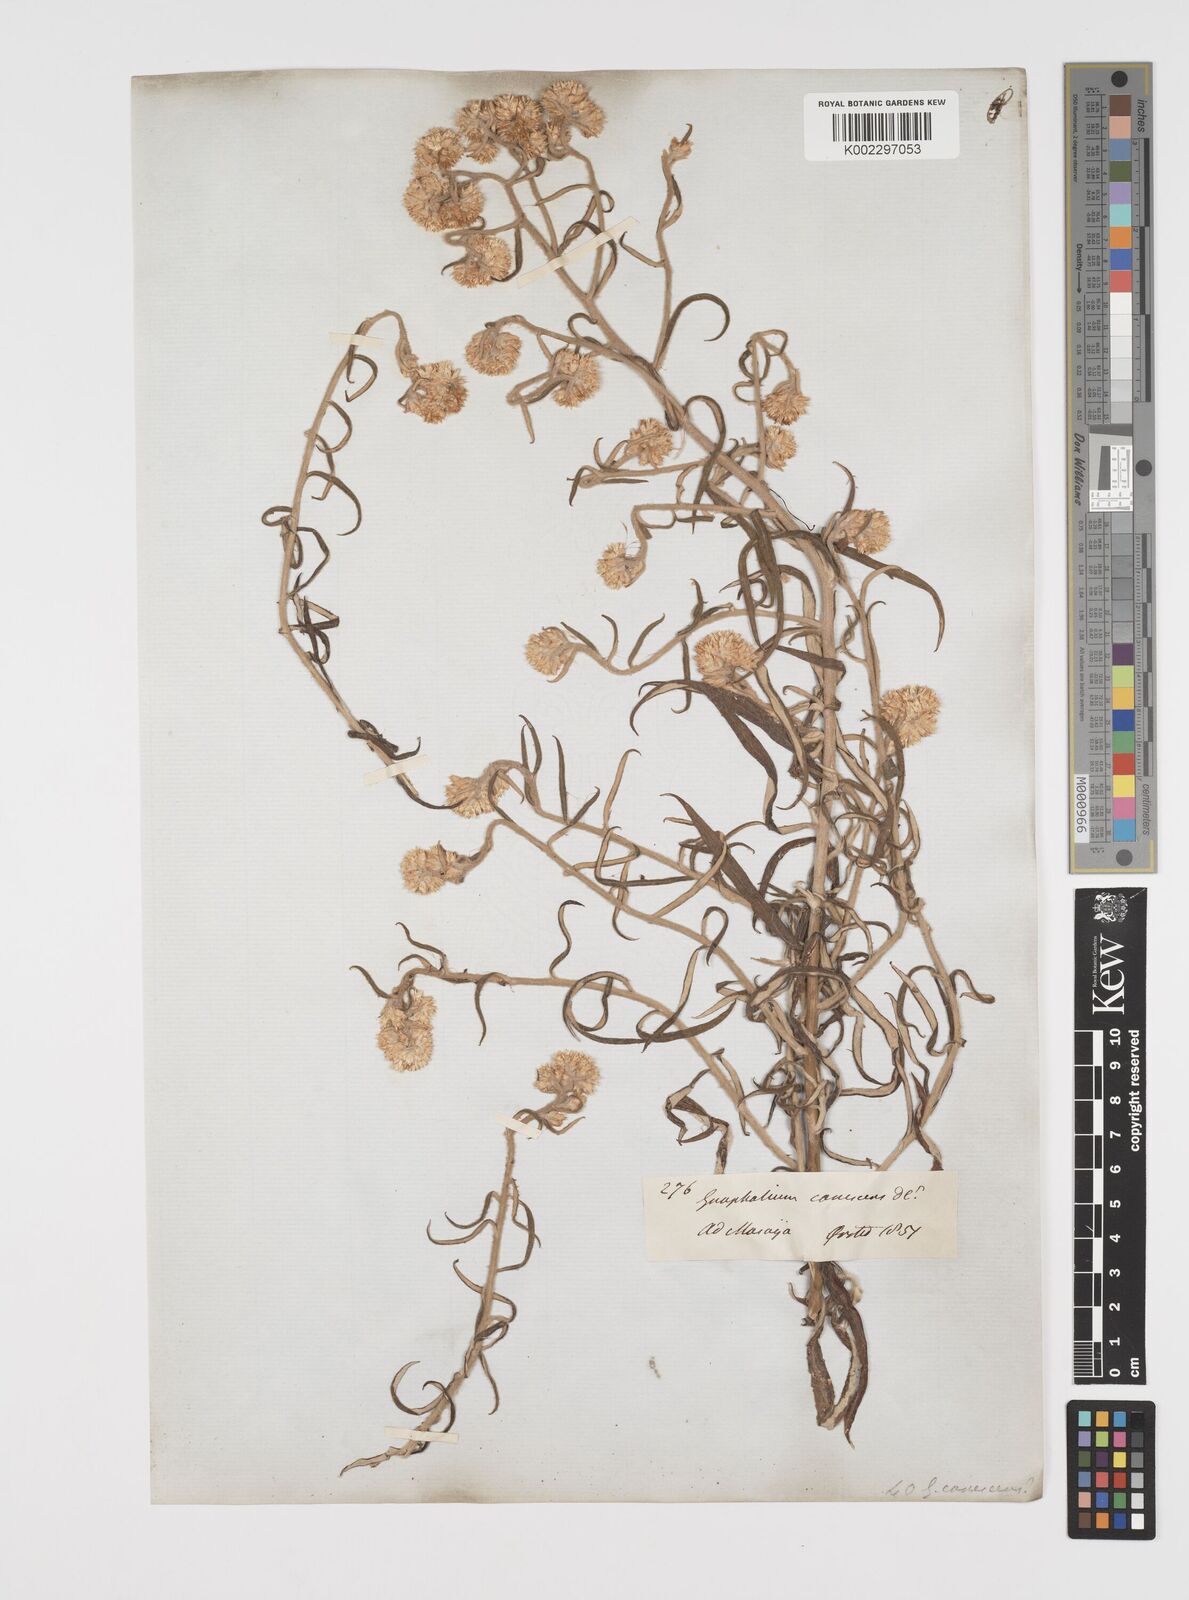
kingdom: Plantae
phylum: Tracheophyta
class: Magnoliopsida
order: Asterales
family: Asteraceae
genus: Pseudognaphalium
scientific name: Pseudognaphalium canescens
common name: Wright's rabbit-tobacco
